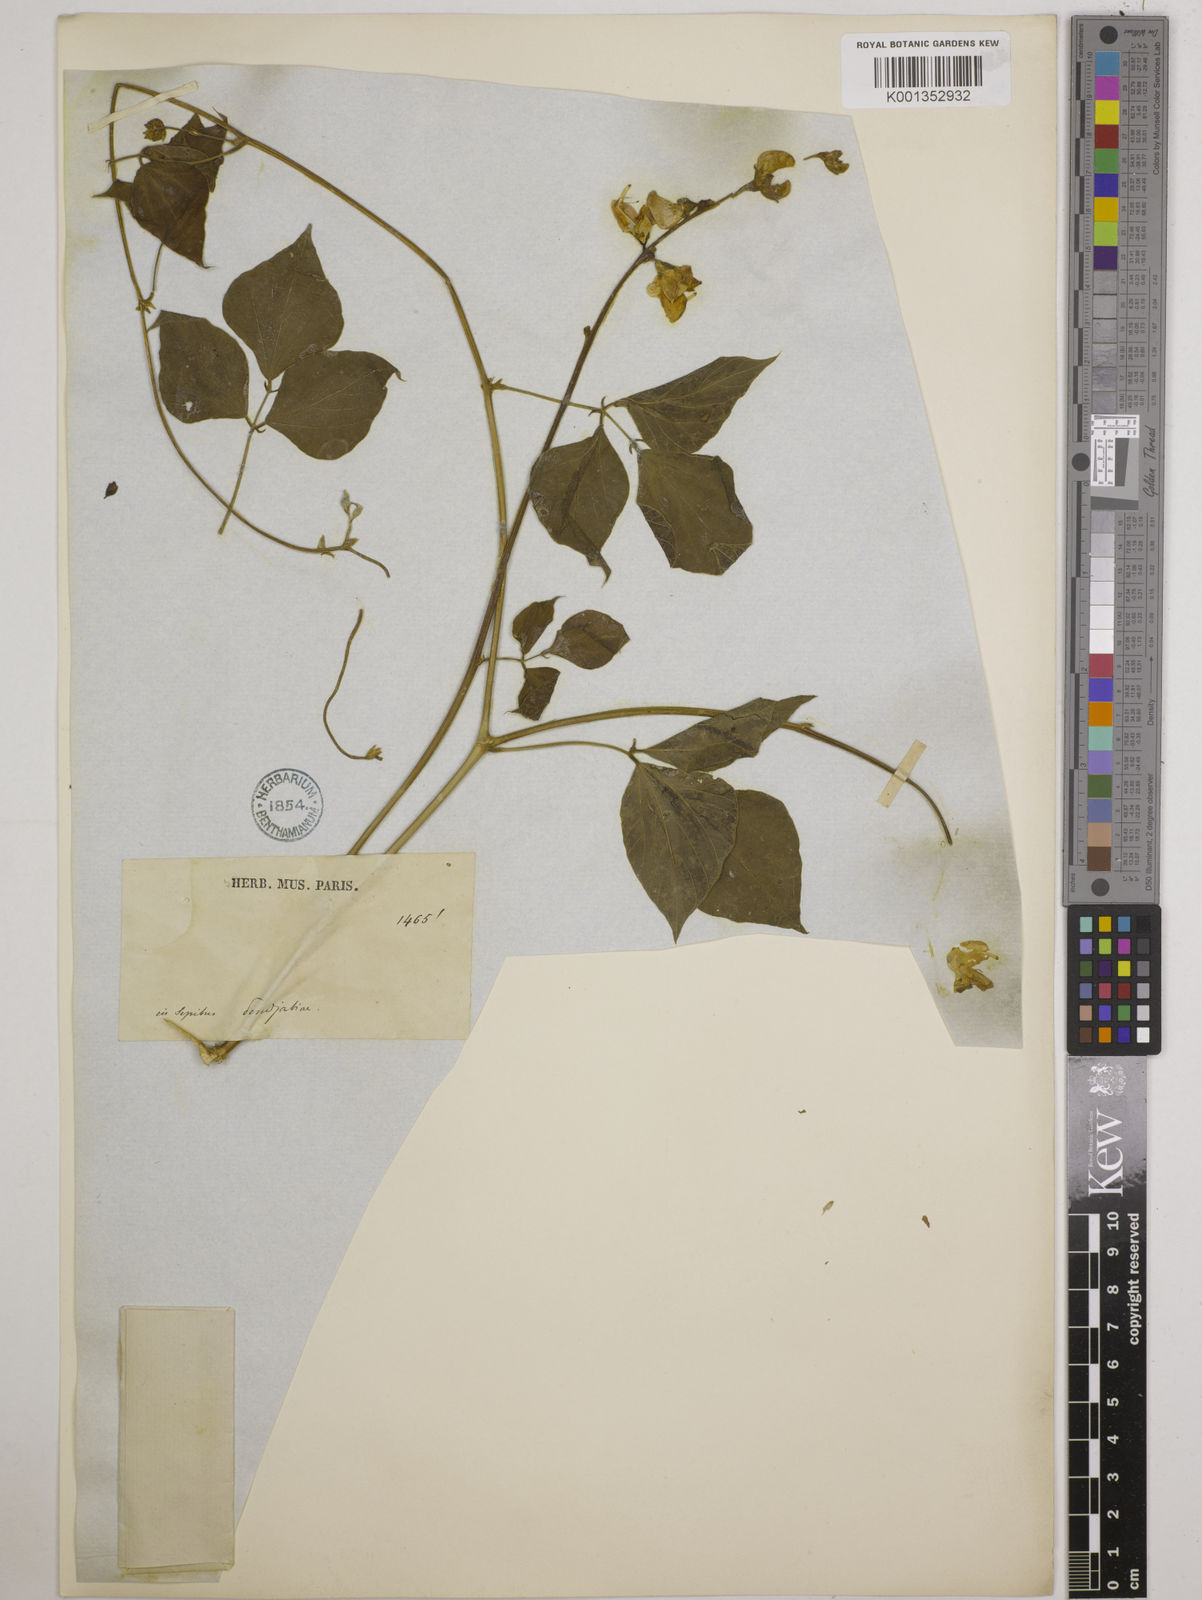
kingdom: Plantae
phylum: Tracheophyta
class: Magnoliopsida
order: Fabales
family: Fabaceae
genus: Lablab
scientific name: Lablab purpureus
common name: Lablab-bean
